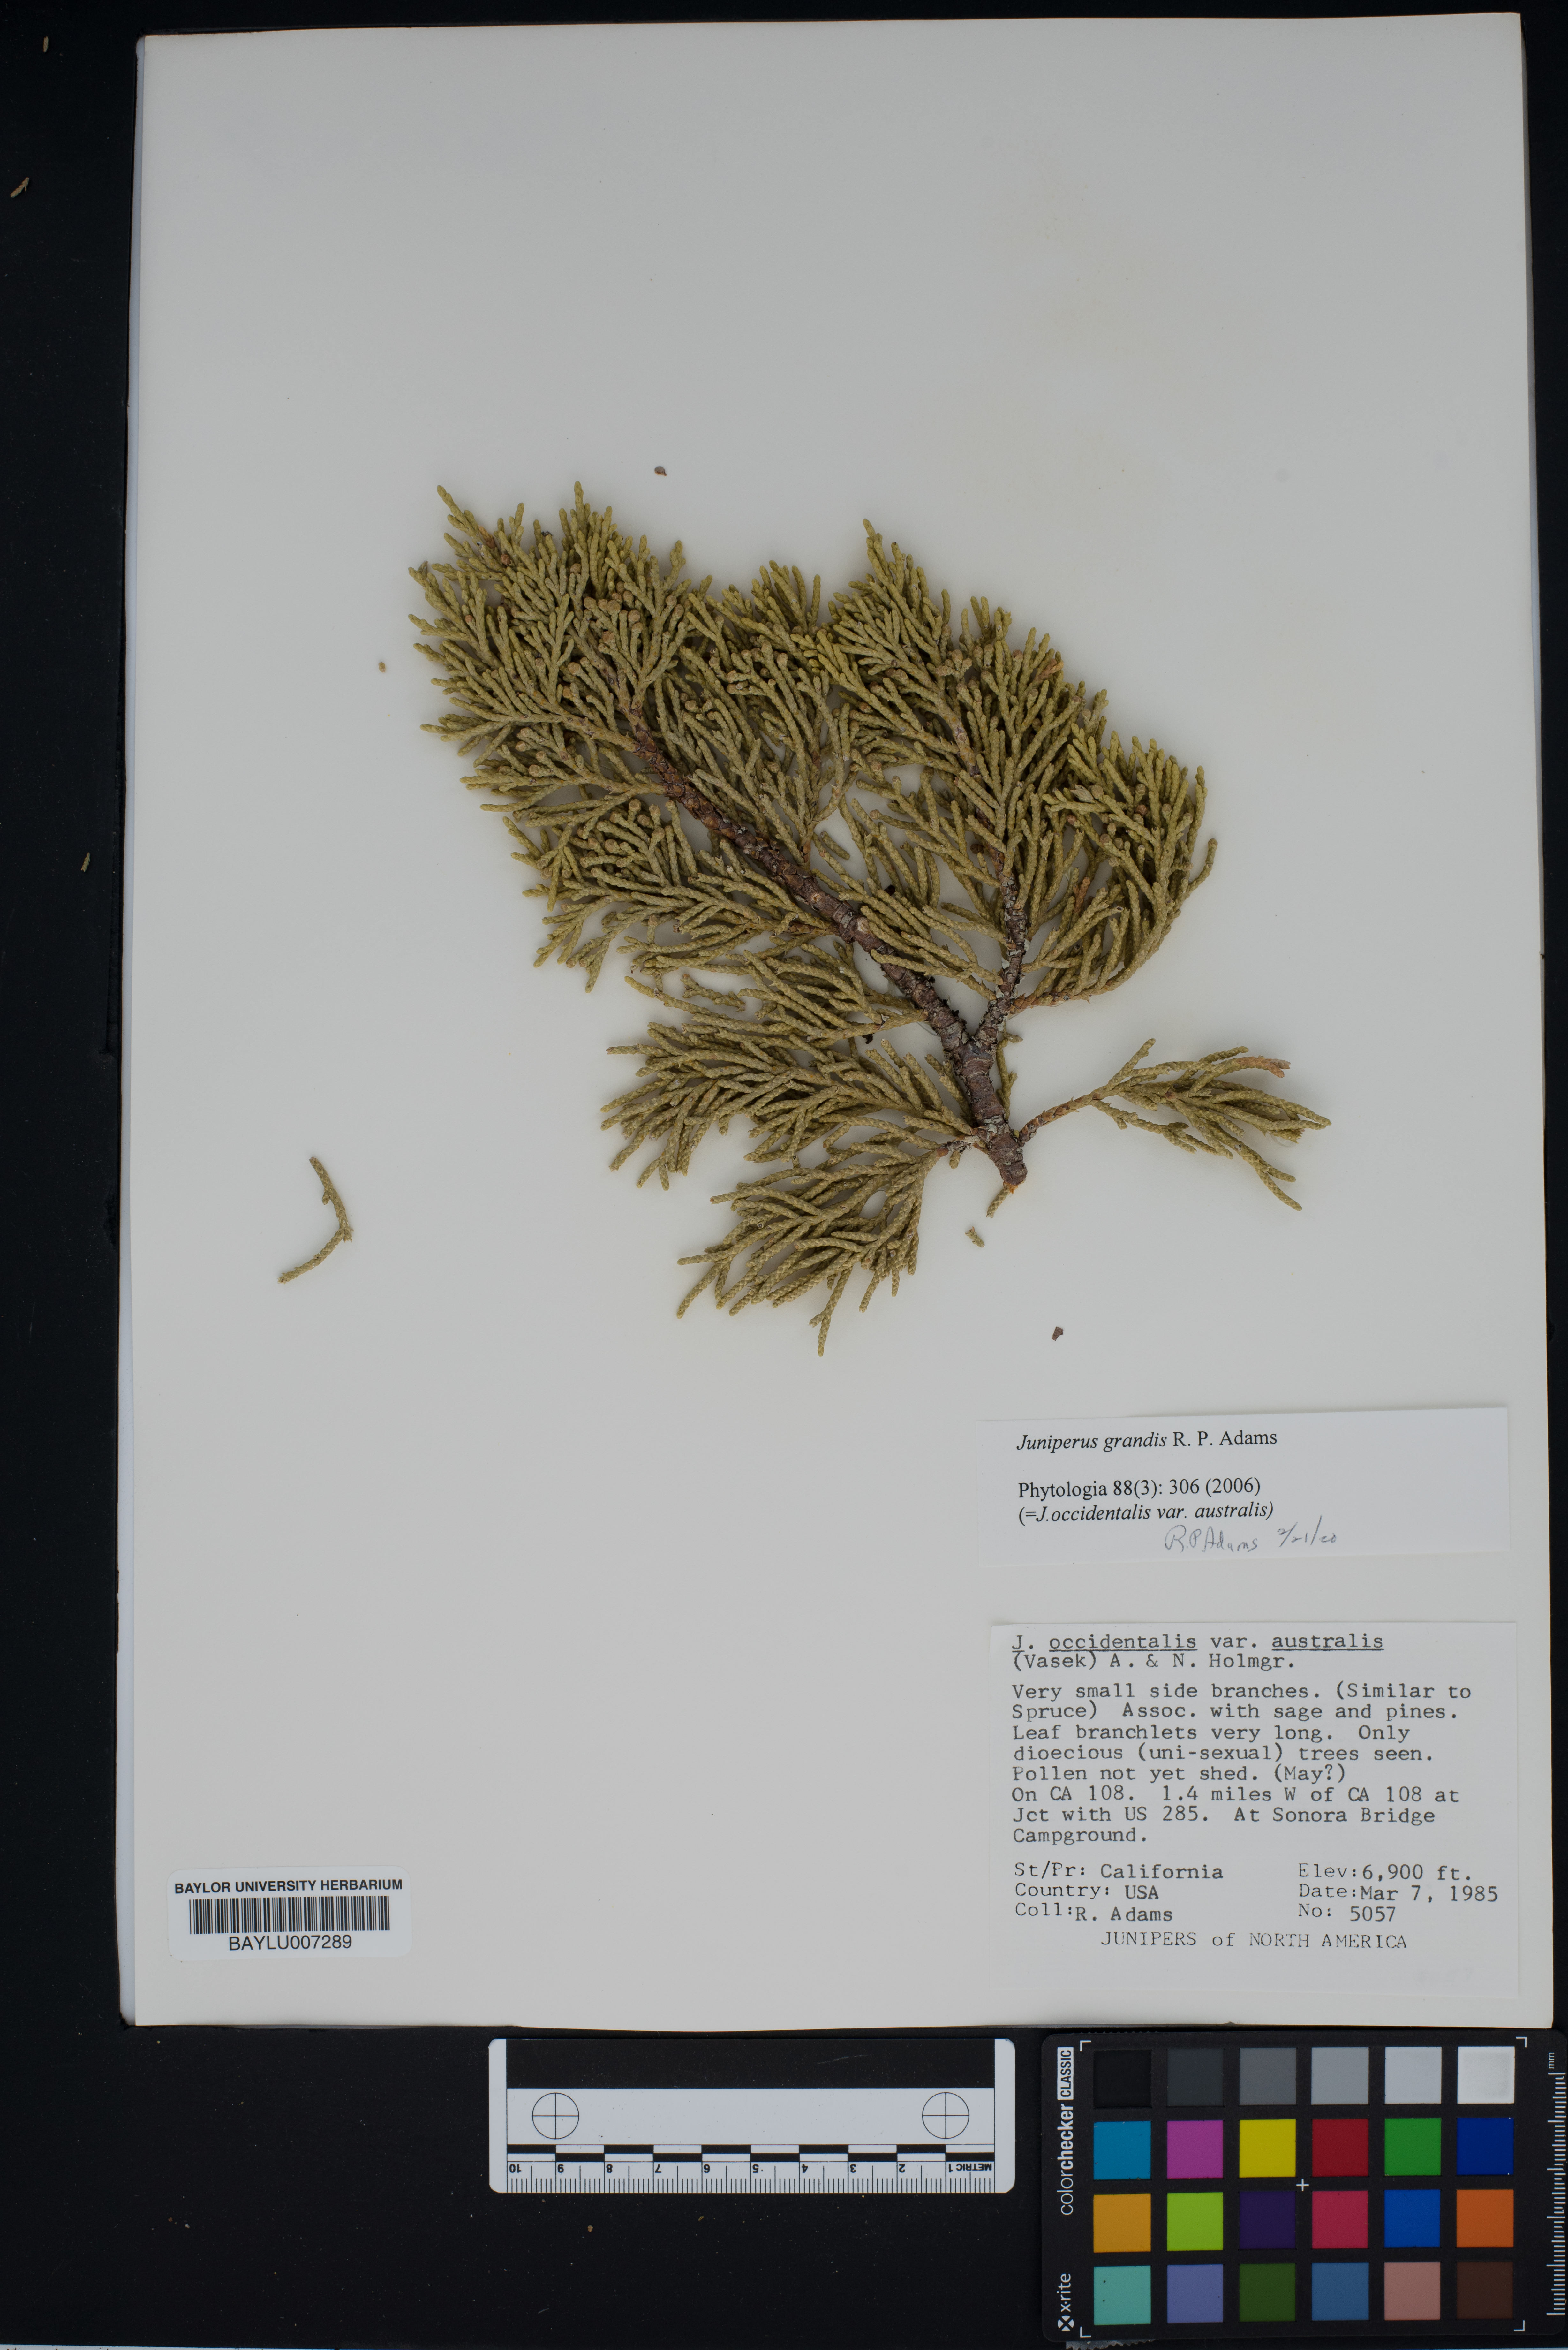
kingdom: Plantae
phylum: Tracheophyta
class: Pinopsida
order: Pinales
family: Cupressaceae
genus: Juniperus
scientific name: Juniperus occidentalis
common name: Western juniper
